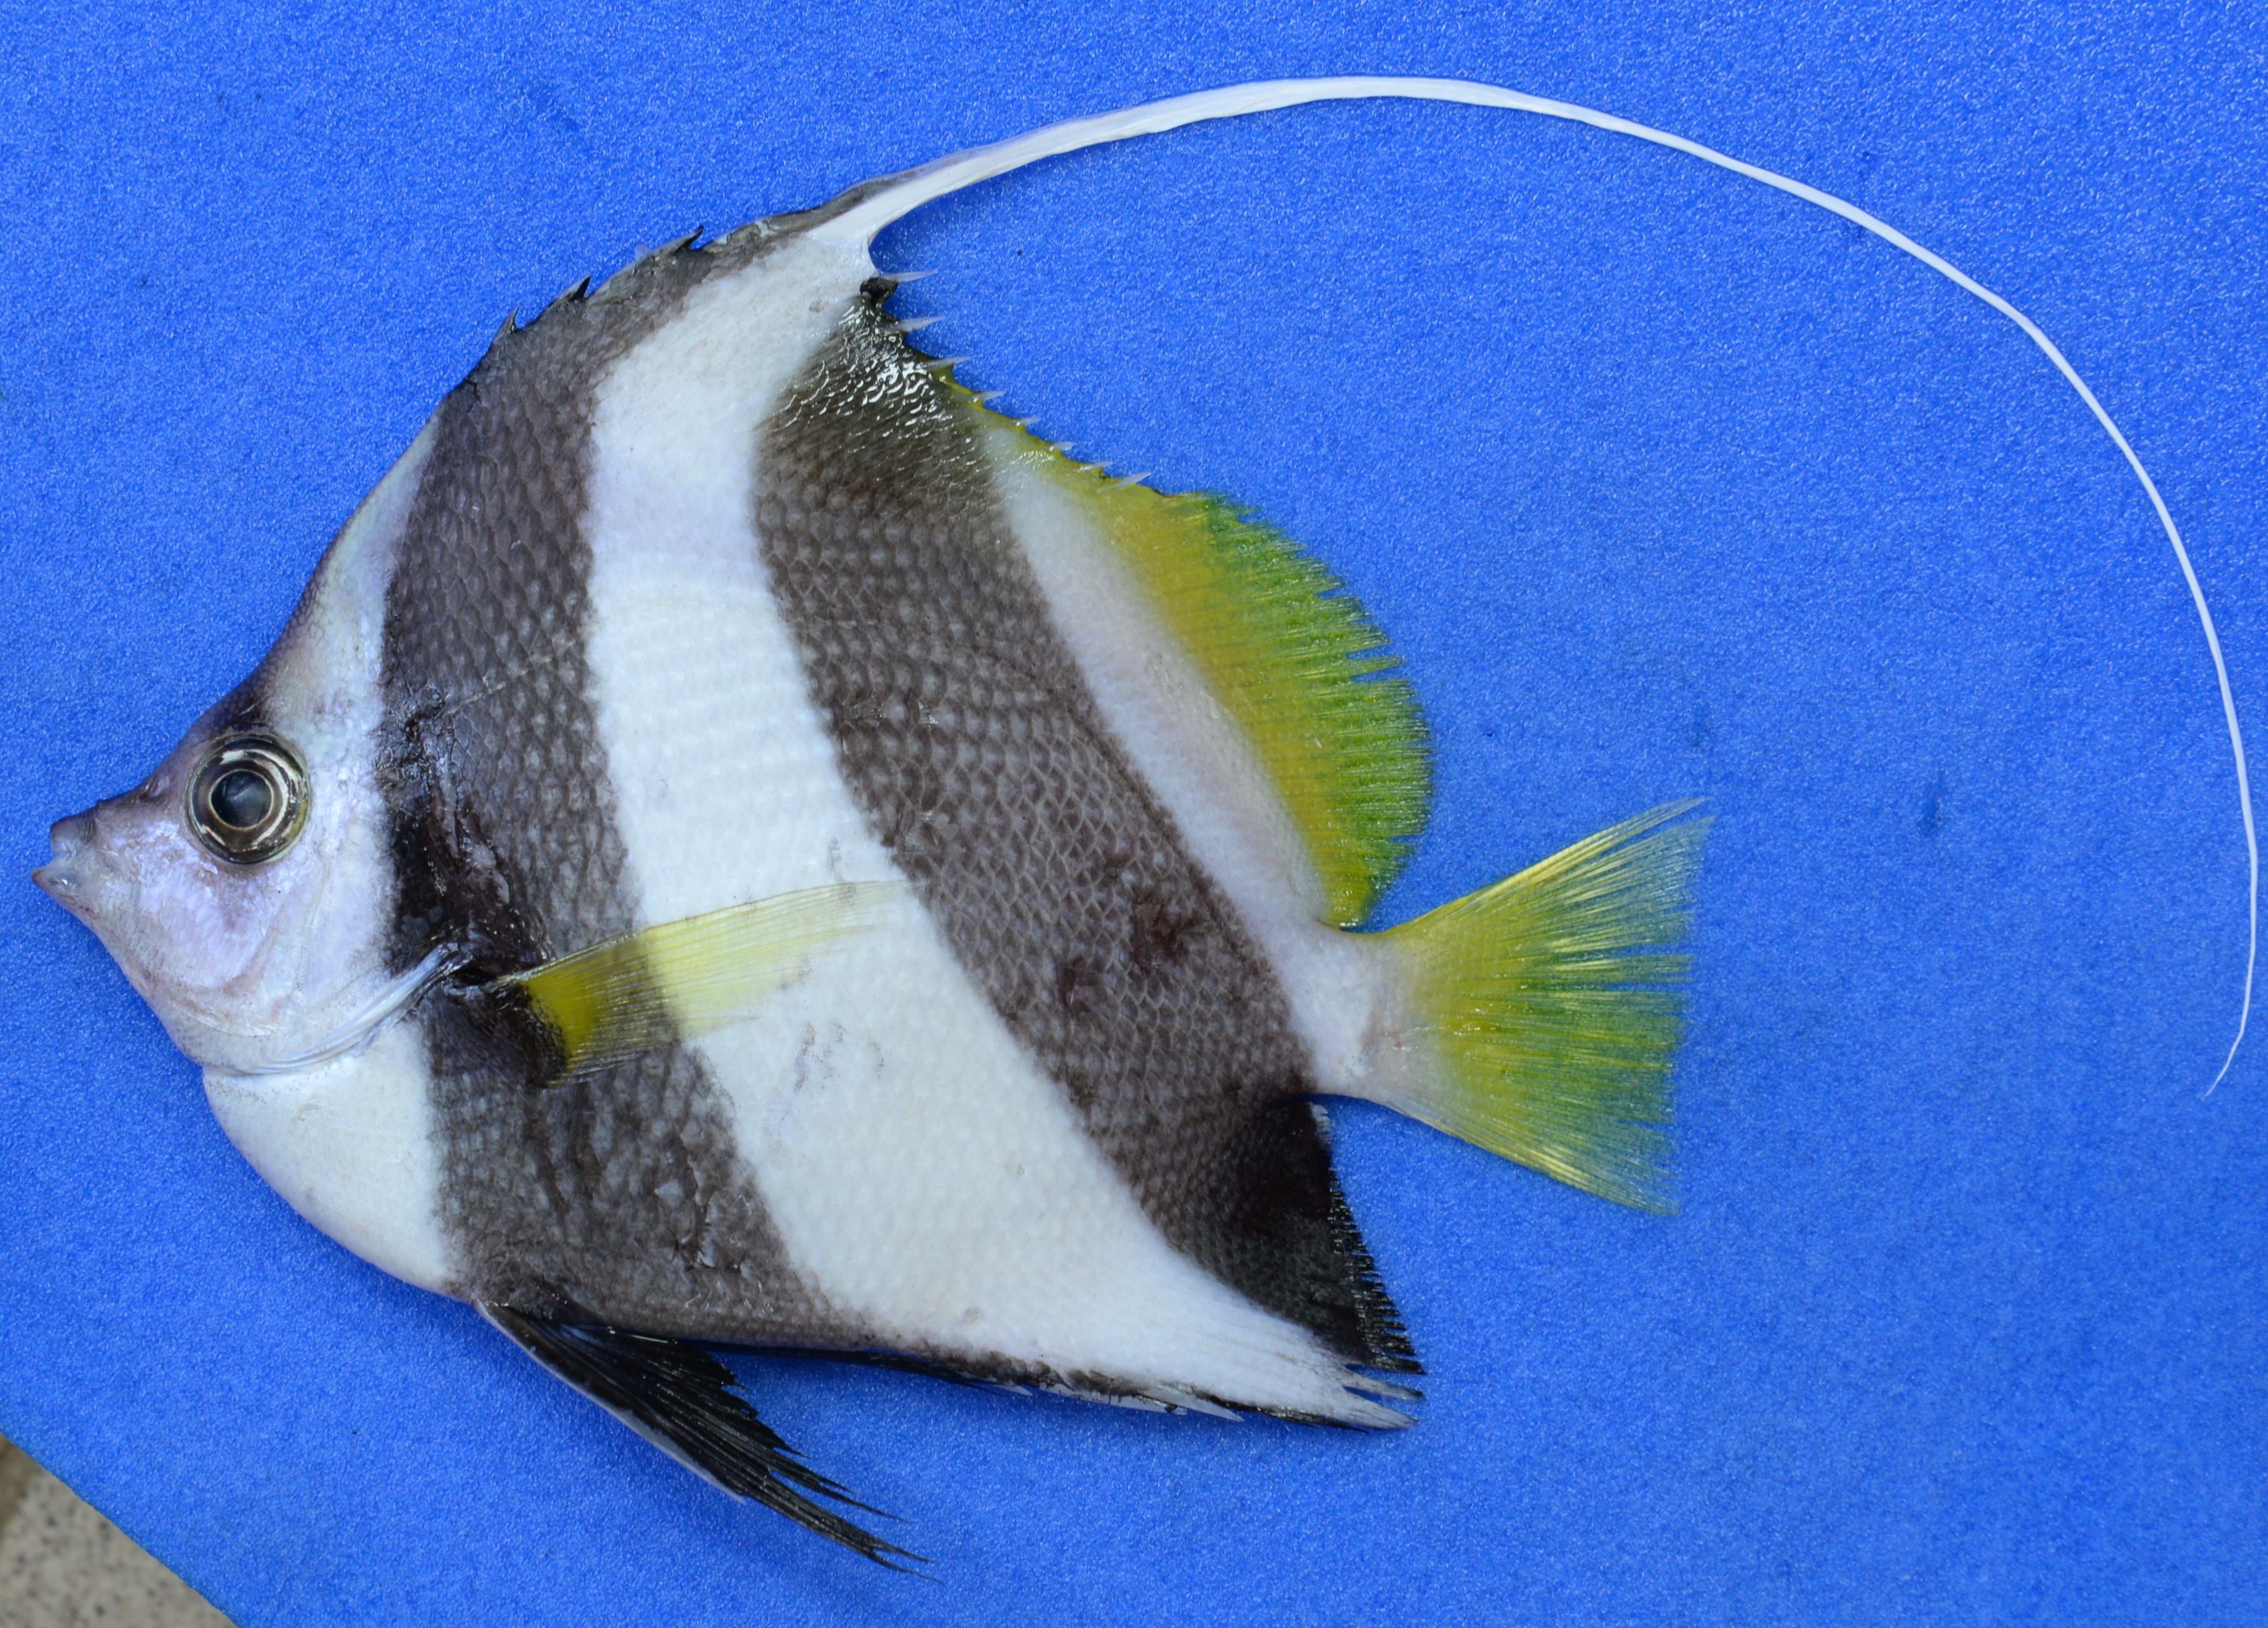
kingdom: Animalia
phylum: Chordata
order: Perciformes
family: Chaetodontidae
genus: Heniochus
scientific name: Heniochus acuminatus
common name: Pennant coralfish
